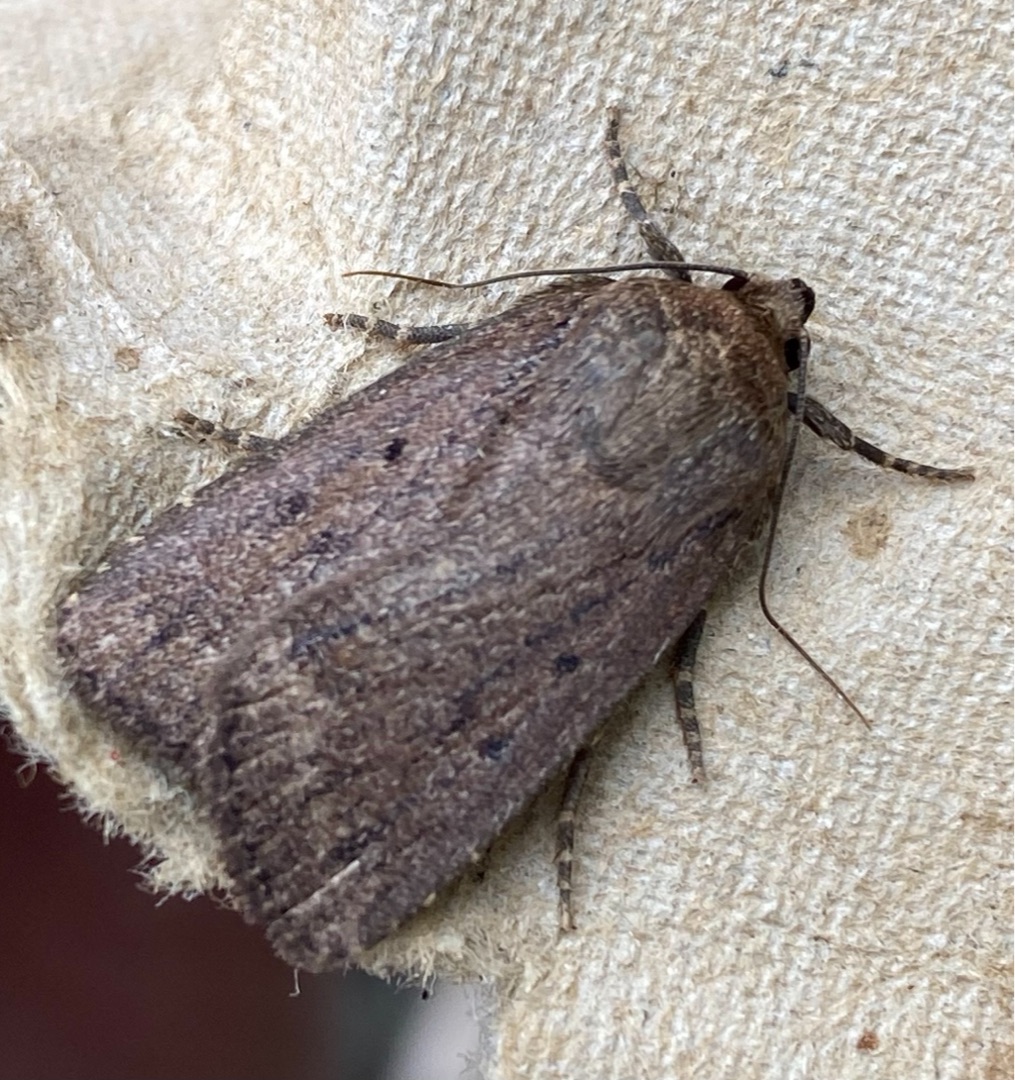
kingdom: Animalia
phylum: Arthropoda
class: Insecta
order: Lepidoptera
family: Noctuidae
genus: Amphipyra
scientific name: Amphipyra tragopoginis
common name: Blyantsugle
